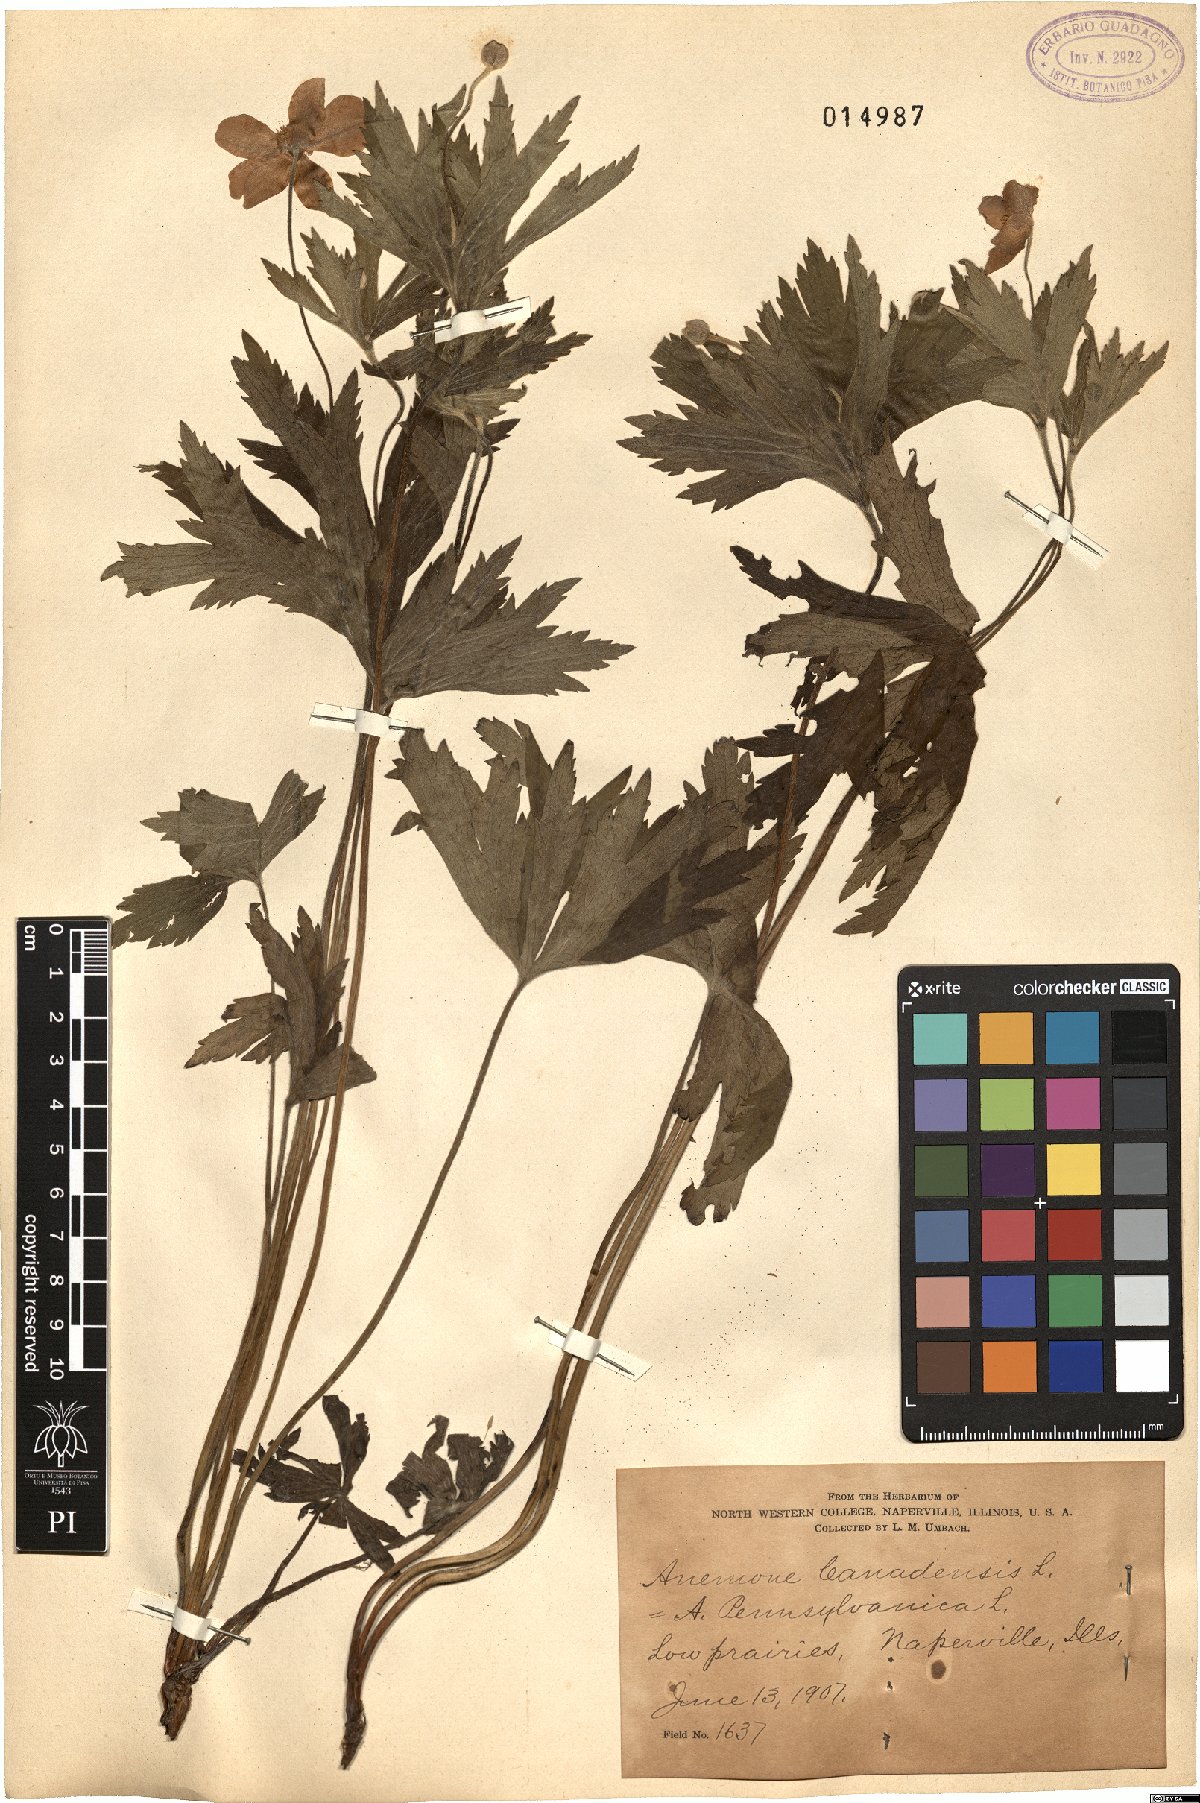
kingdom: Plantae
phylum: Tracheophyta
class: Magnoliopsida
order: Ranunculales
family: Ranunculaceae
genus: Anemonastrum
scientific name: Anemonastrum canadense
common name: Canada anemone
